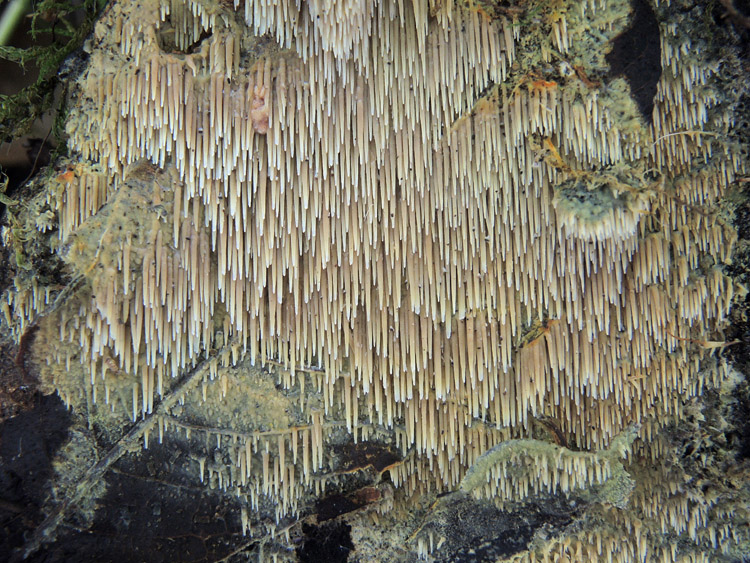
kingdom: Fungi
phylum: Basidiomycota
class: Agaricomycetes
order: Polyporales
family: Meruliaceae
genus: Mycoaciella
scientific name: Mycoaciella bispora
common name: stalaktit-vokspig
